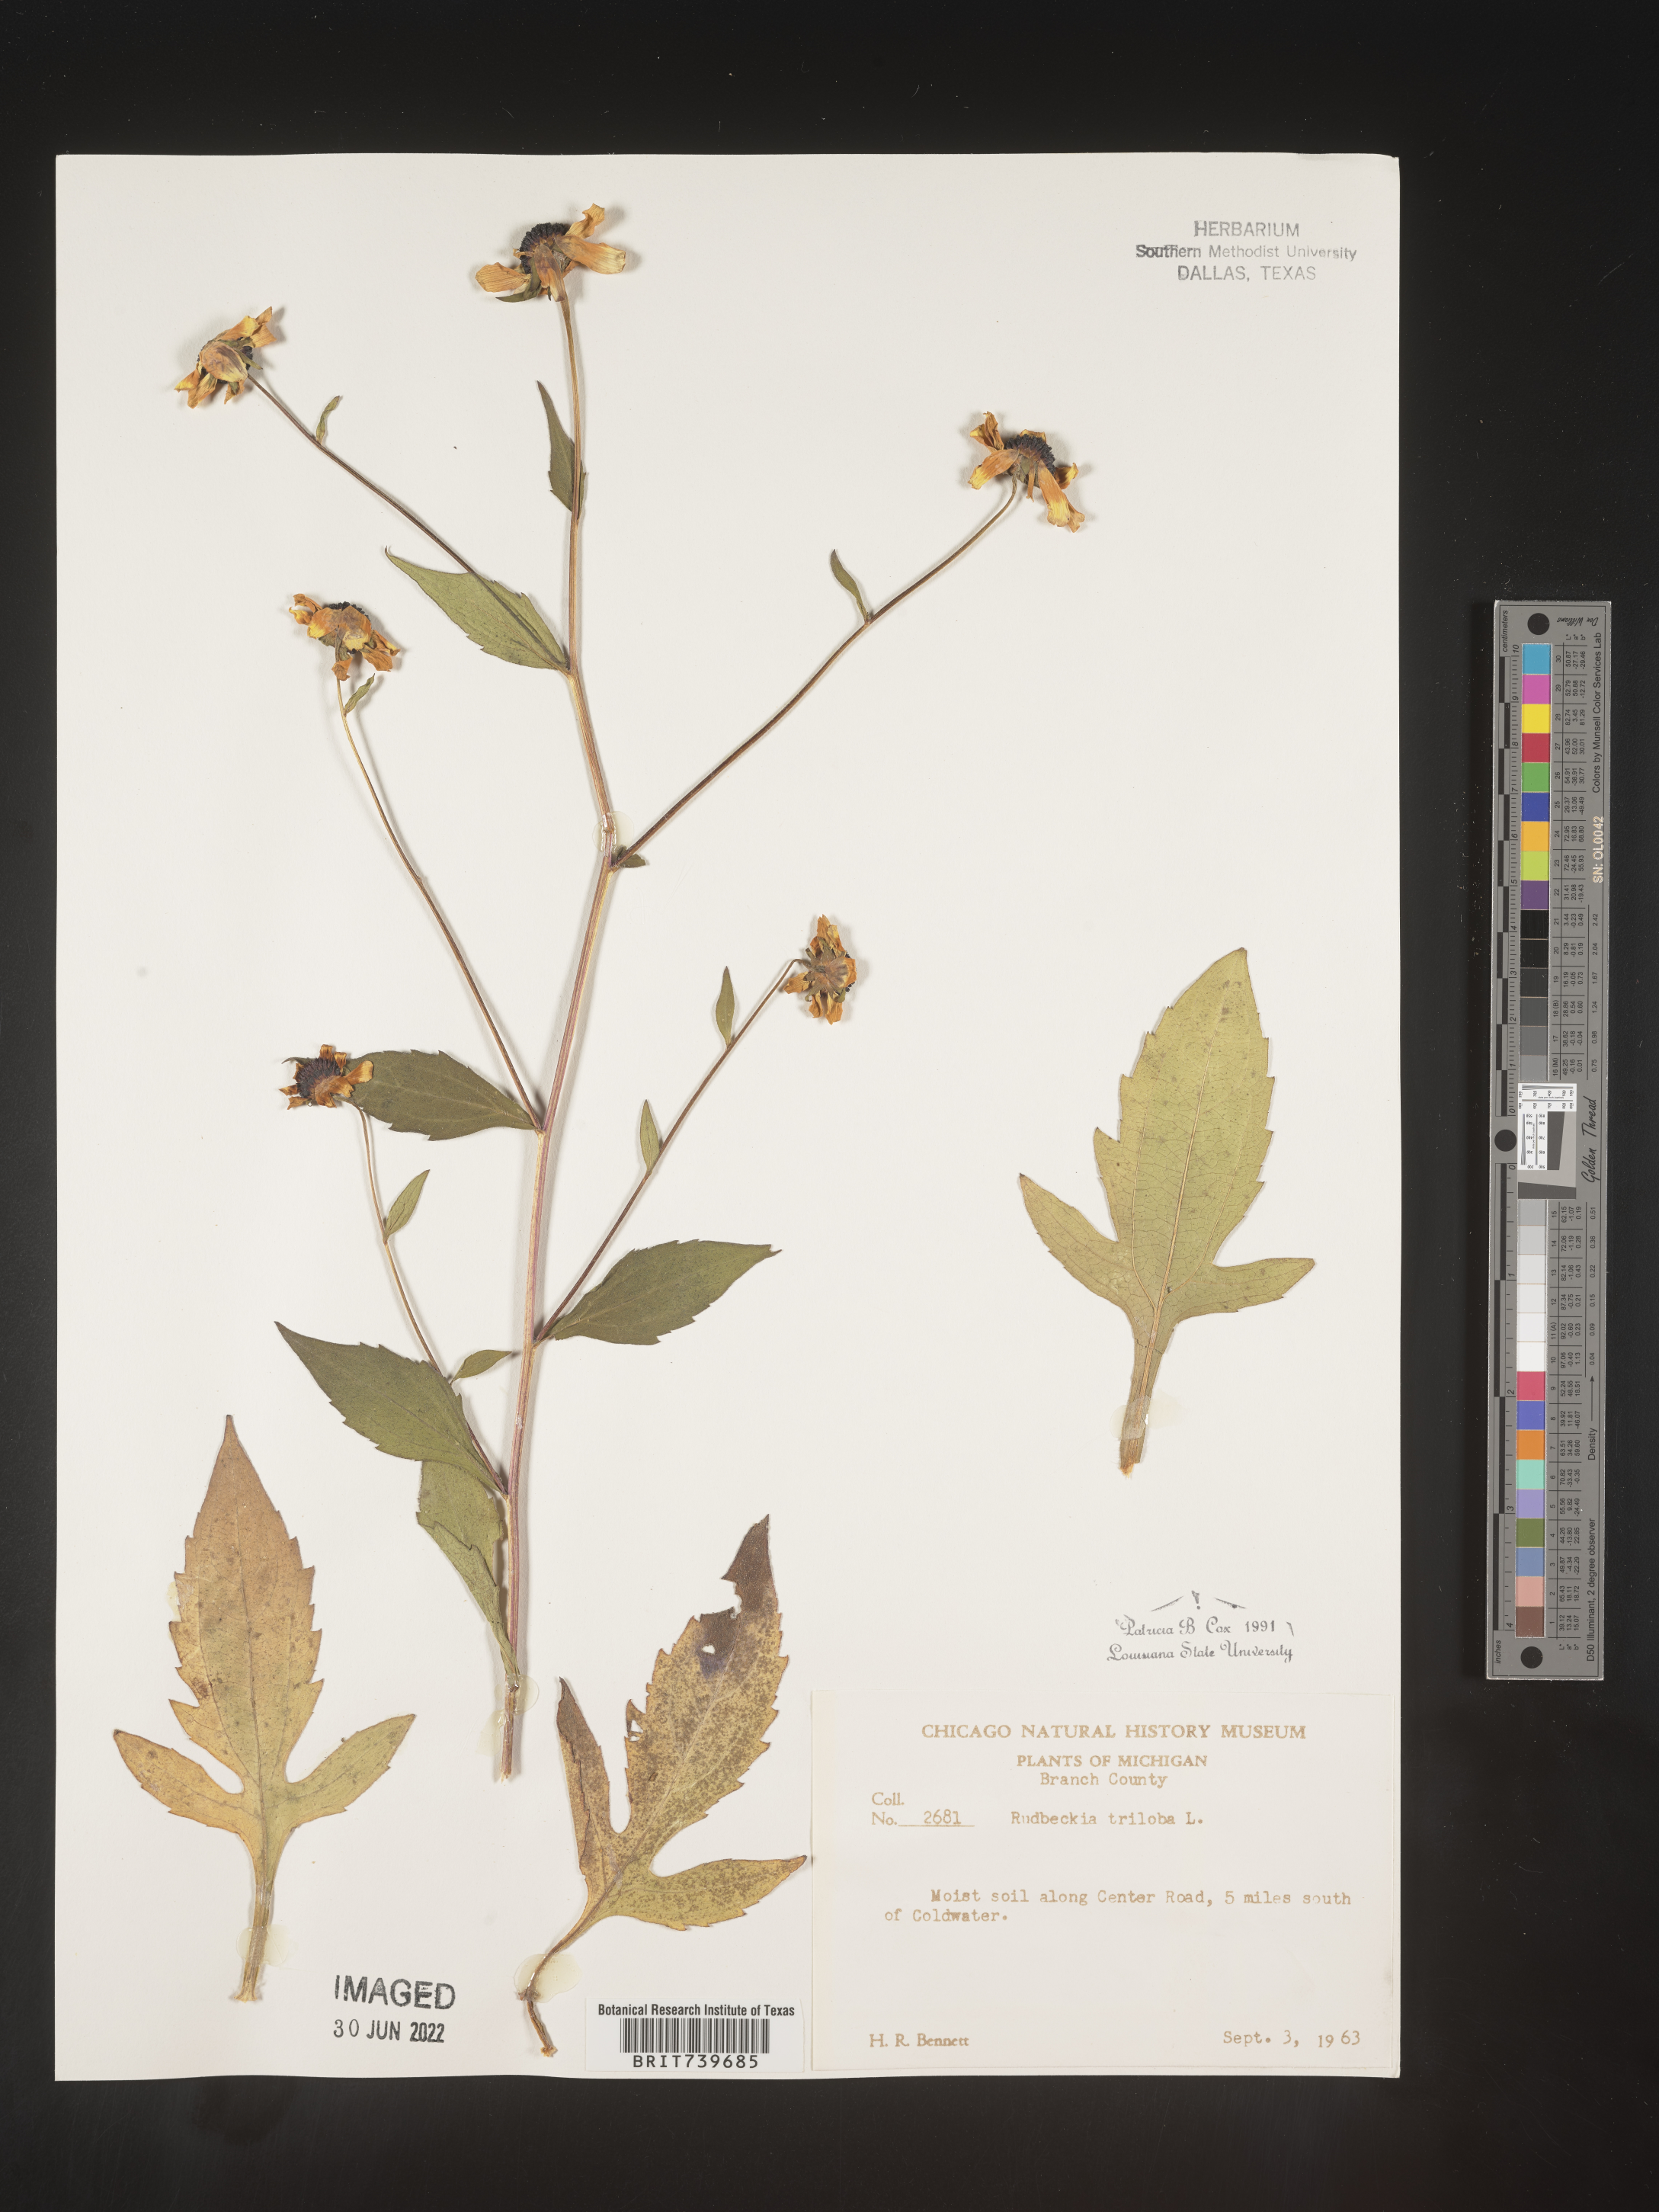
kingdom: Plantae
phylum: Tracheophyta
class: Magnoliopsida
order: Asterales
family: Asteraceae
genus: Rudbeckia
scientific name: Rudbeckia triloba
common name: Thin-leaved coneflower
